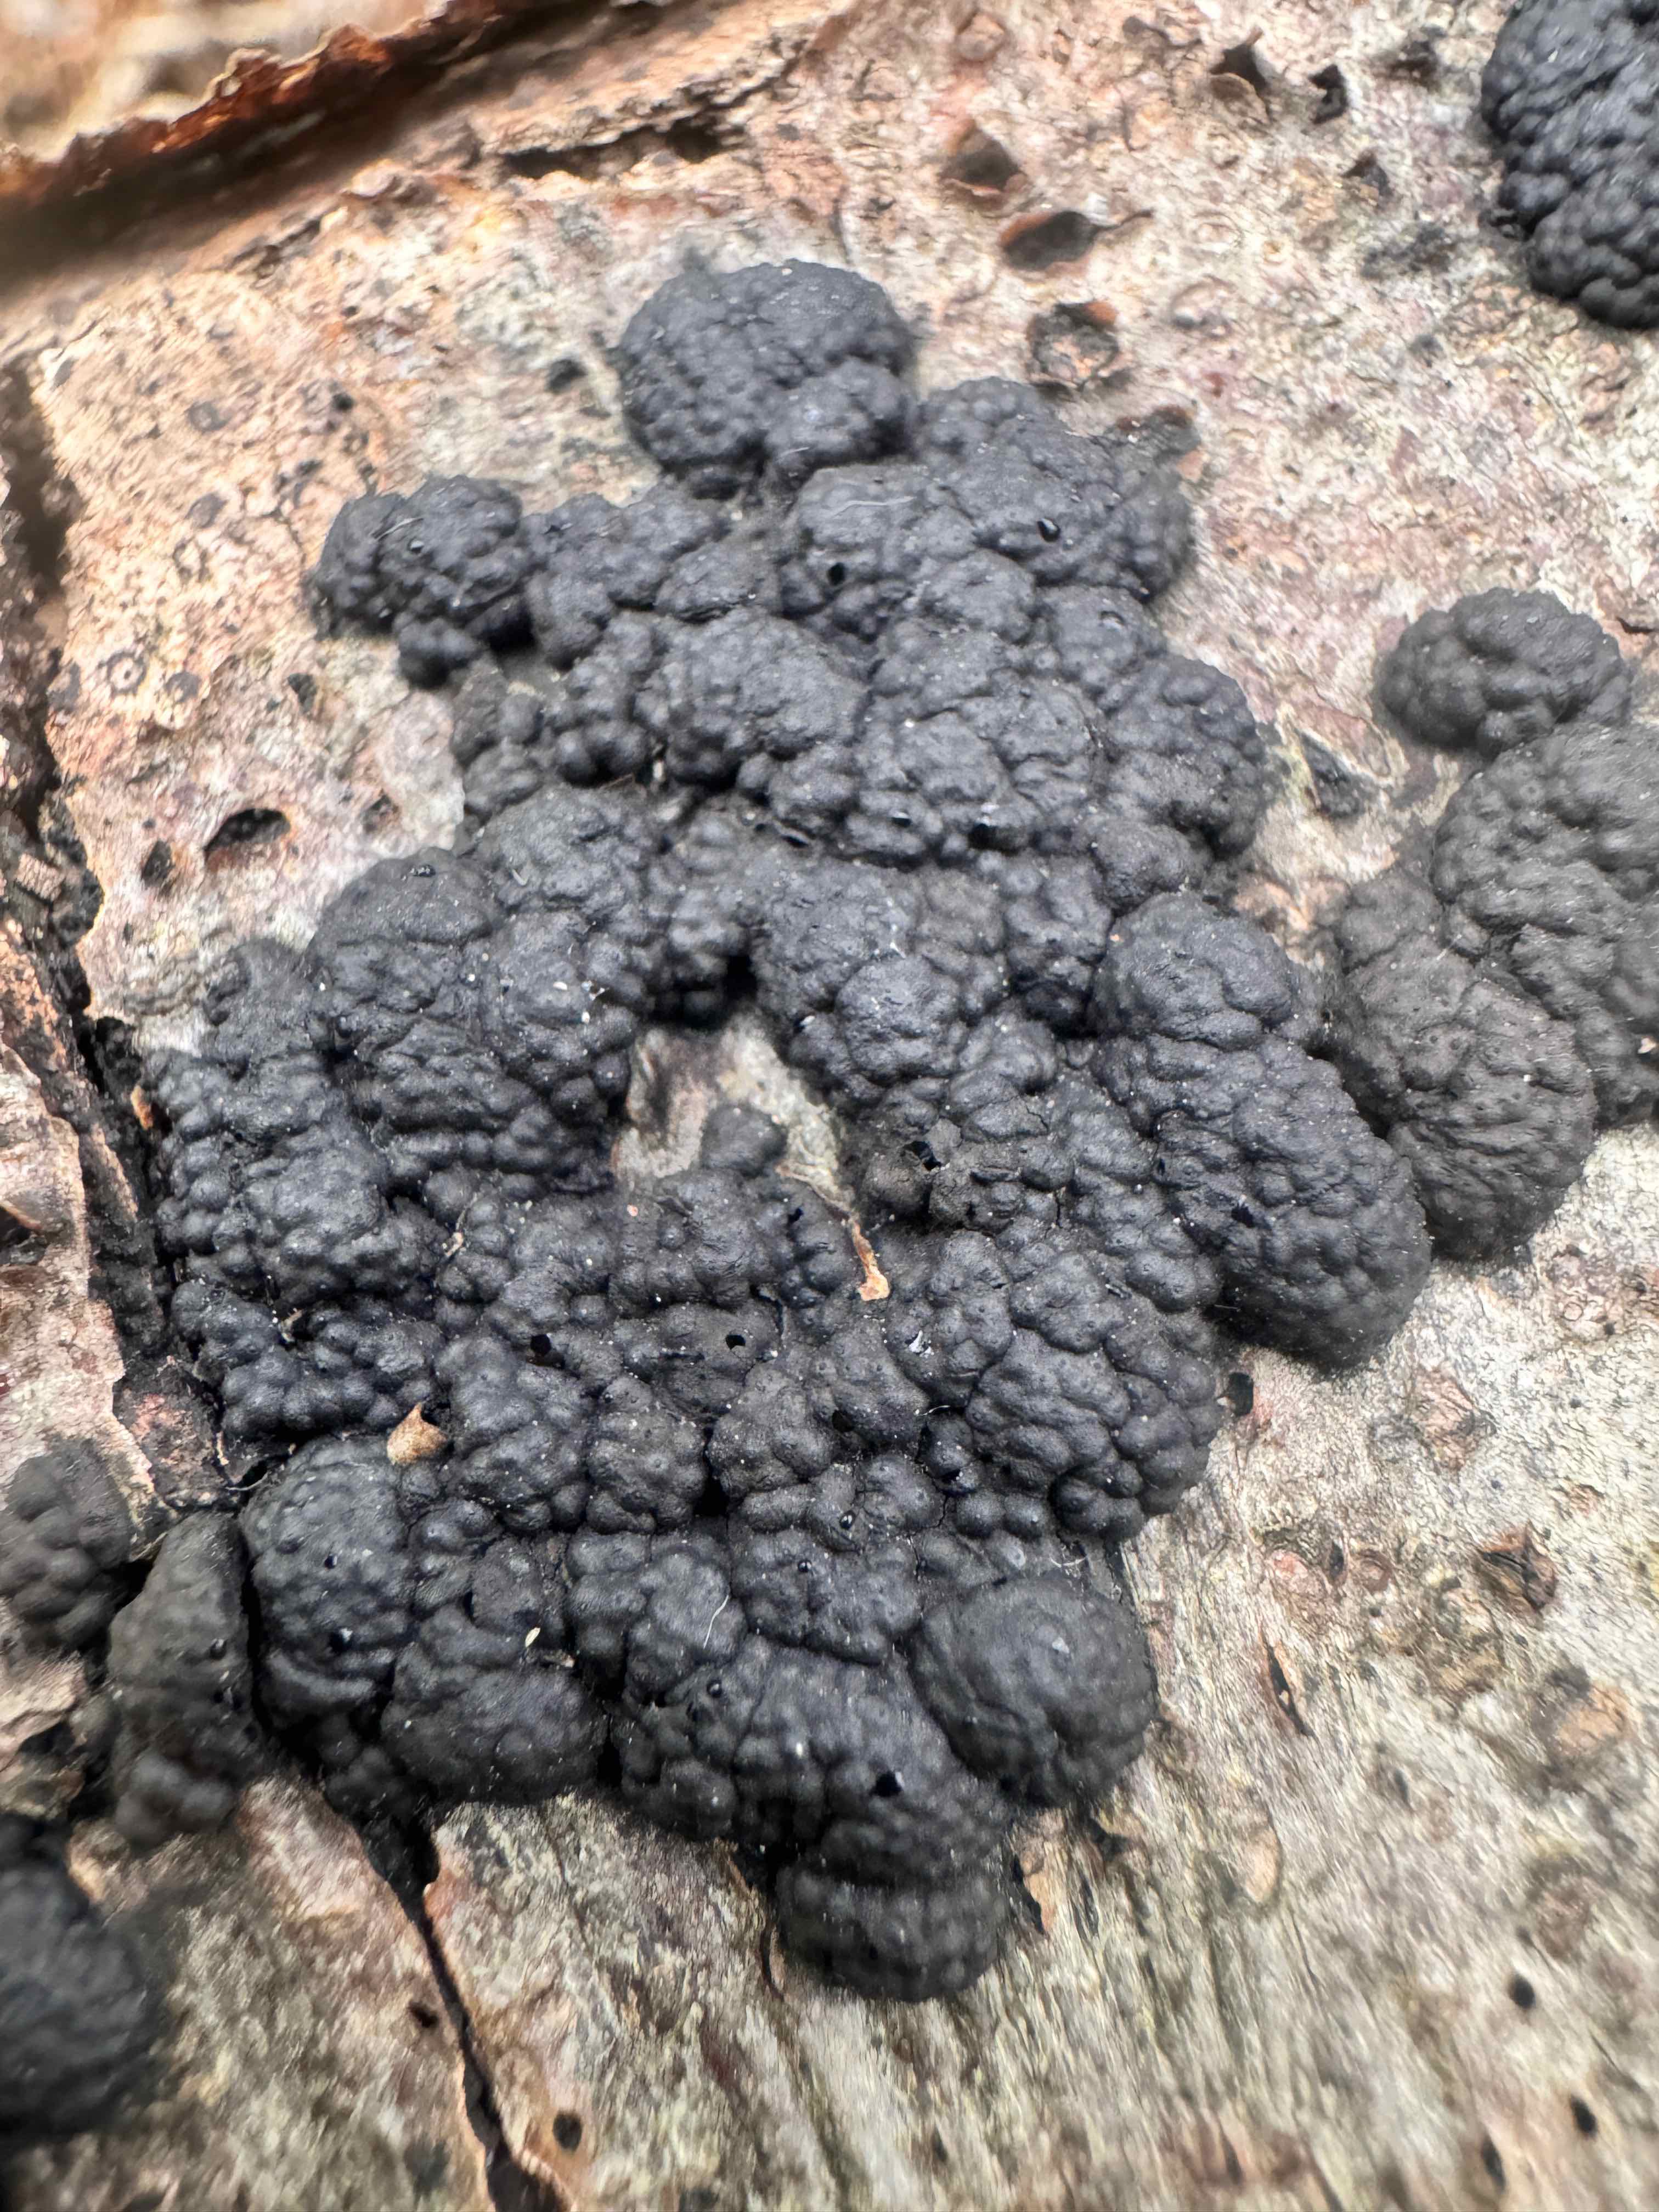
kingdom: Fungi
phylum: Ascomycota
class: Sordariomycetes
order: Xylariales
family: Hypoxylaceae
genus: Jackrogersella
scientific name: Jackrogersella cohaerens
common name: sammenflydende kulbær
